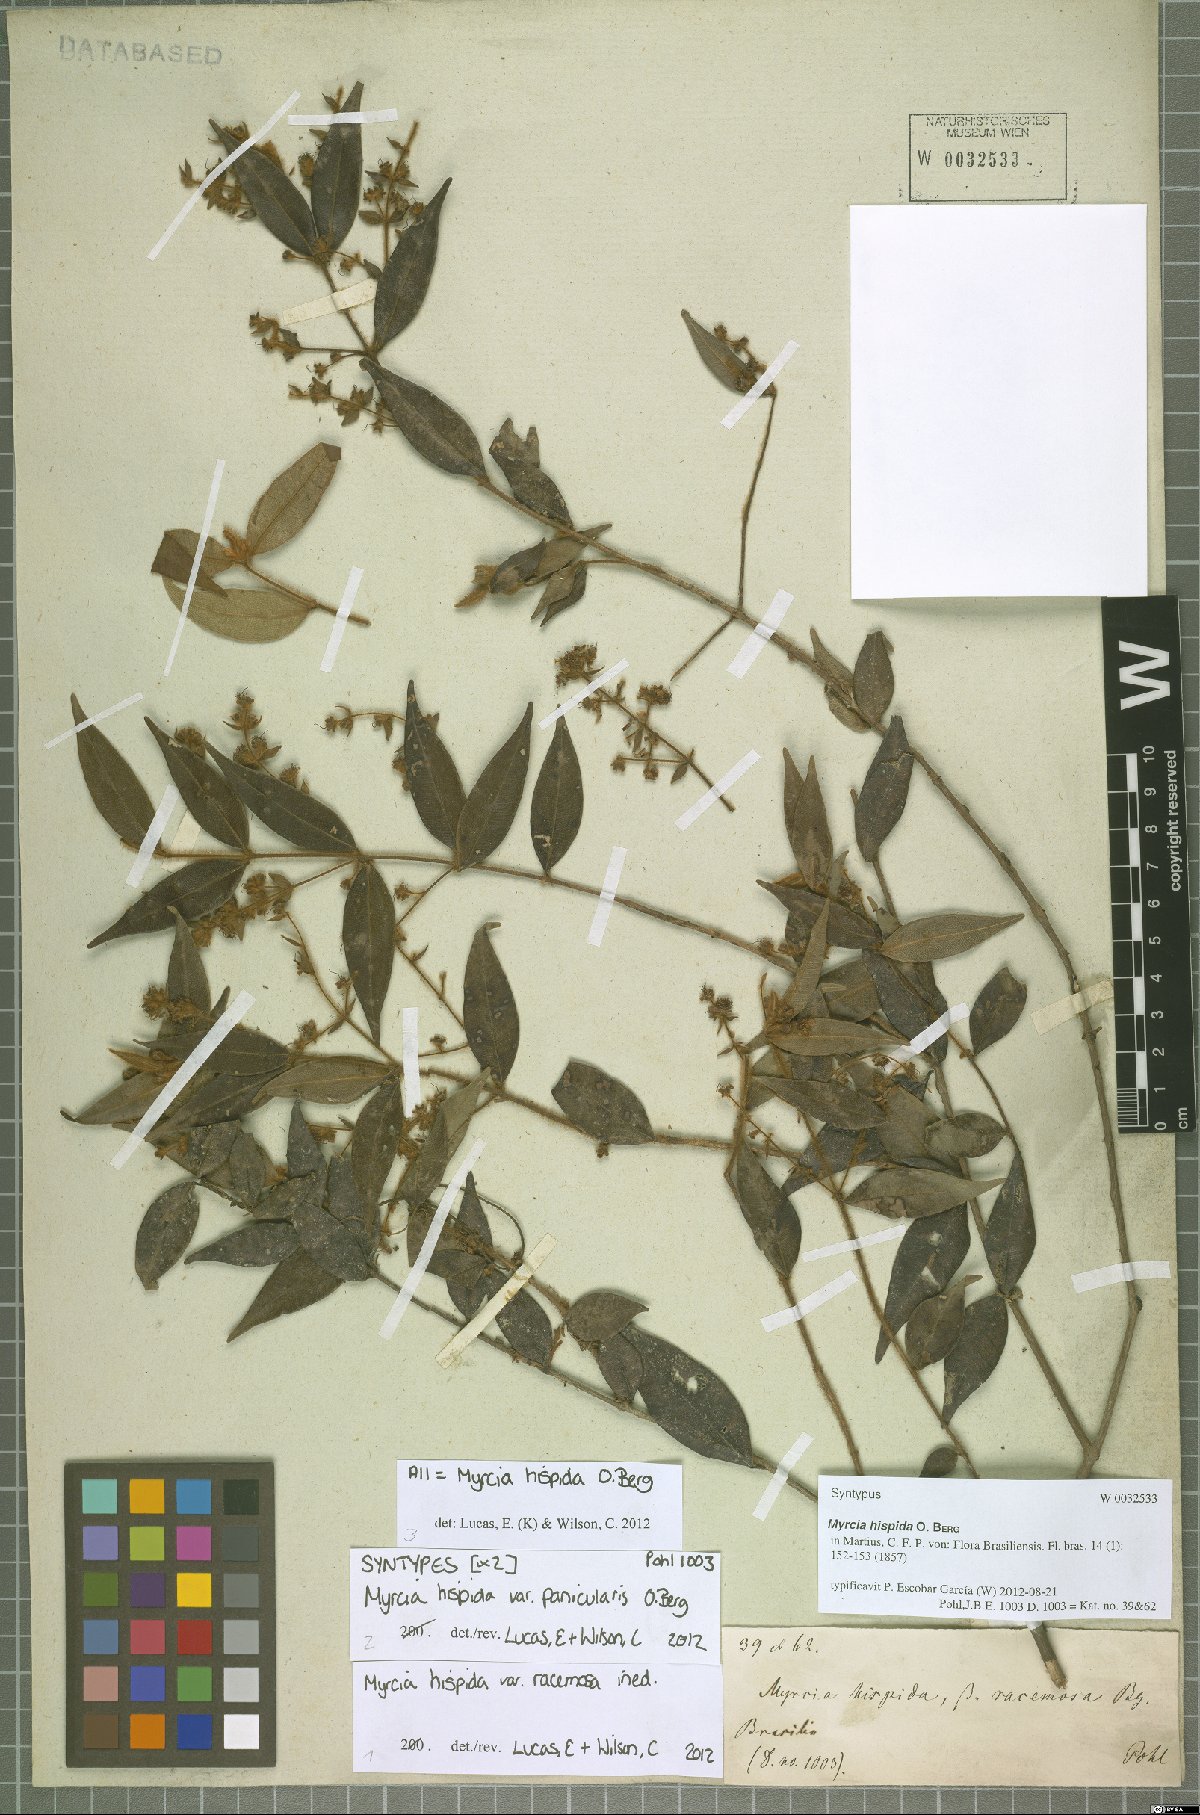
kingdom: Plantae
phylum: Tracheophyta
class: Magnoliopsida
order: Myrtales
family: Myrtaceae
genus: Myrcia
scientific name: Myrcia hispida
